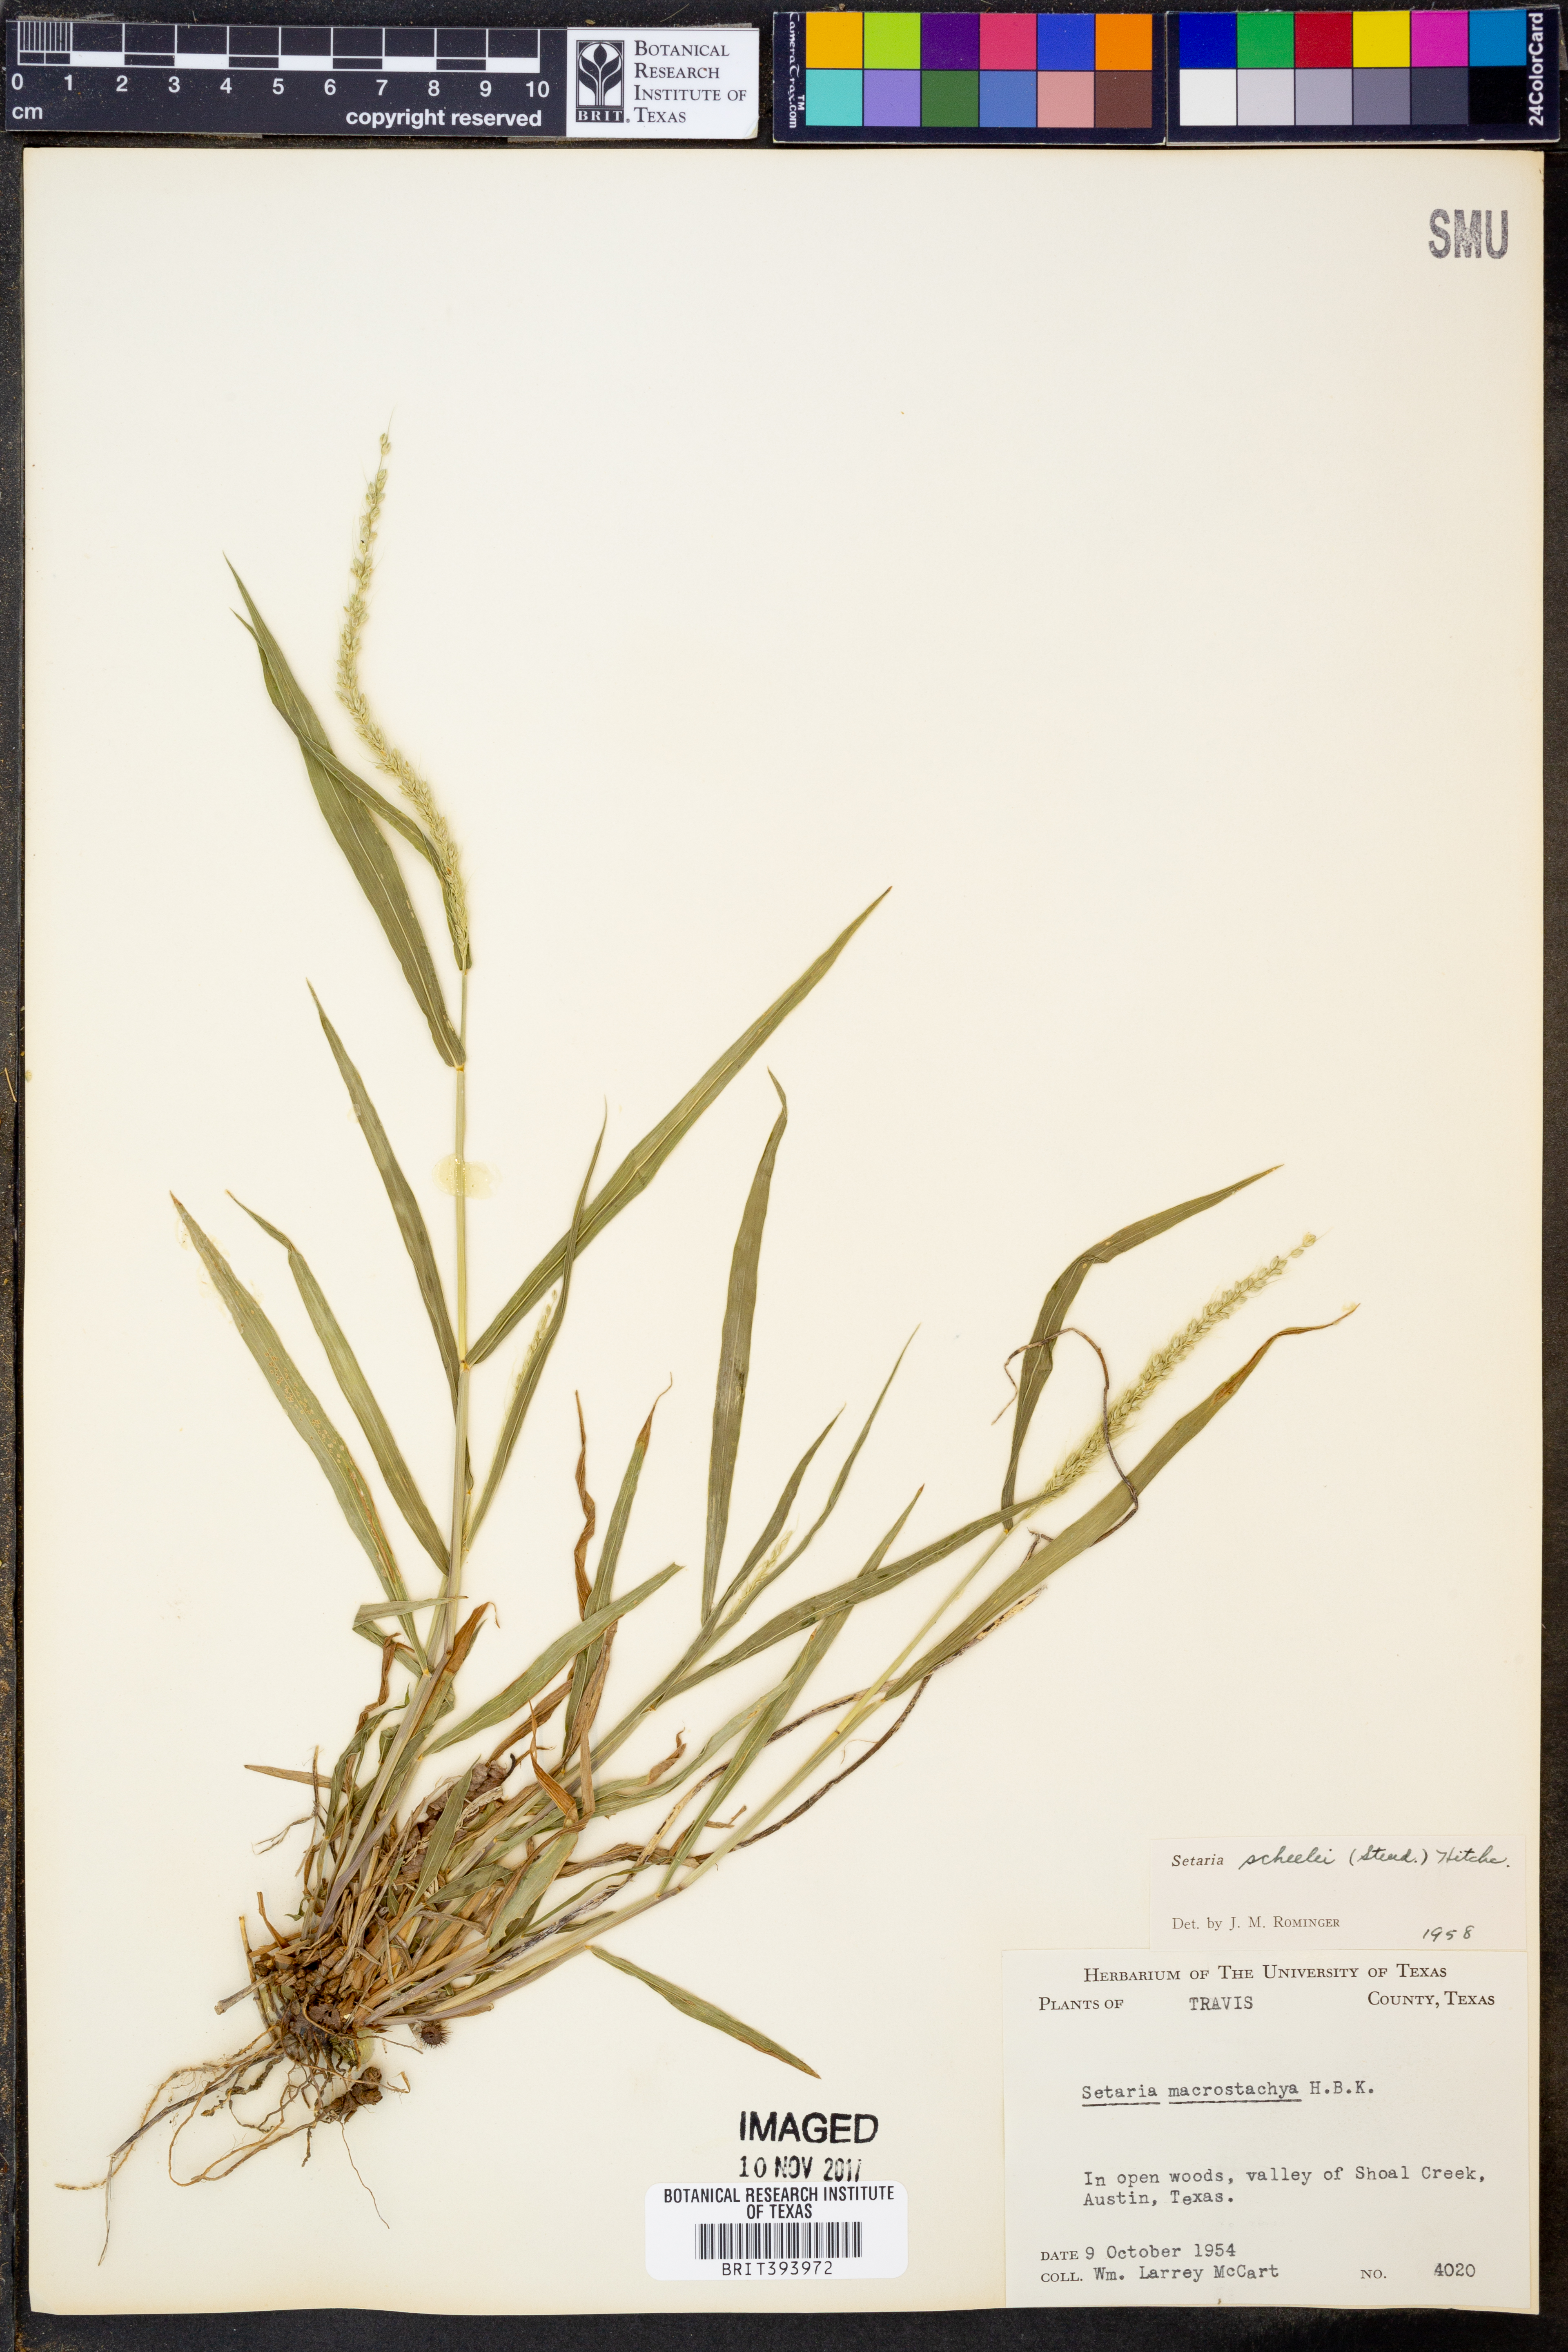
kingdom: Plantae
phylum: Tracheophyta
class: Liliopsida
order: Poales
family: Poaceae
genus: Setaria
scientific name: Setaria scheelei
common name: Southwestern bristle grass
